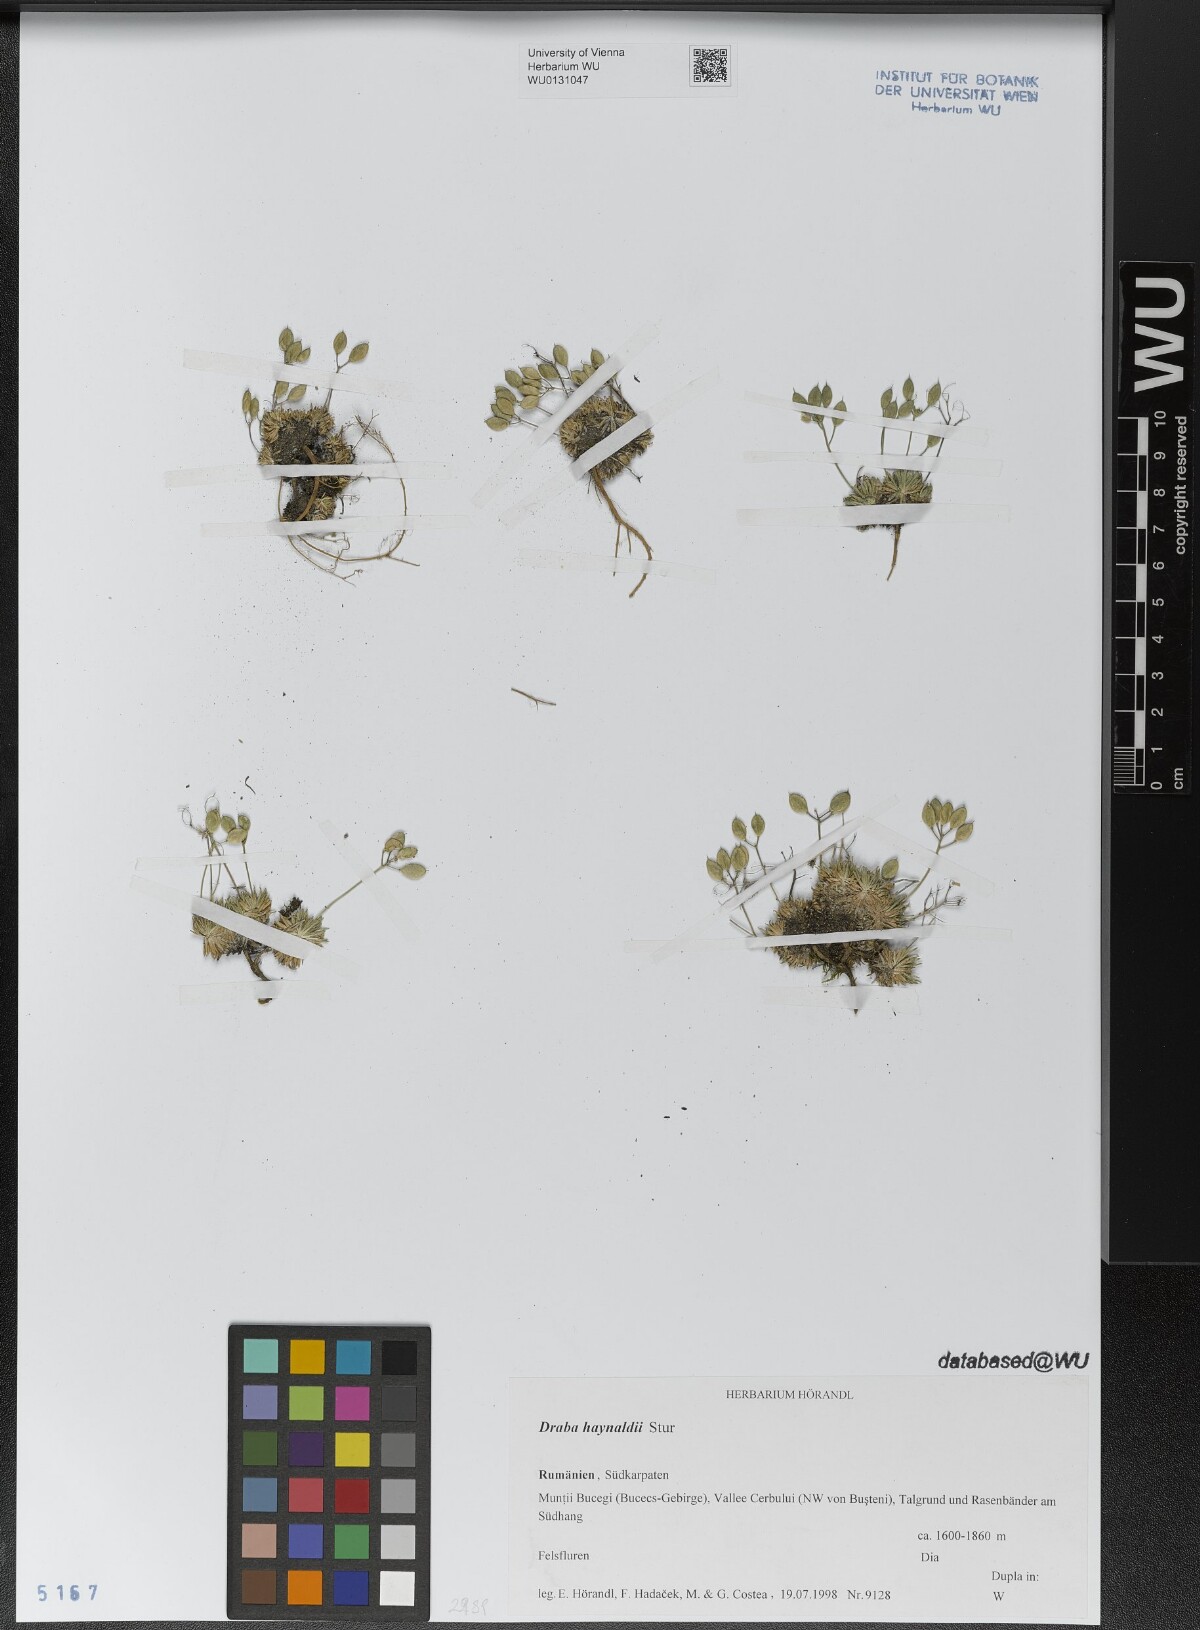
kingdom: Plantae
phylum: Tracheophyta
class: Magnoliopsida
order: Brassicales
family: Brassicaceae
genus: Draba
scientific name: Draba haynaldii
